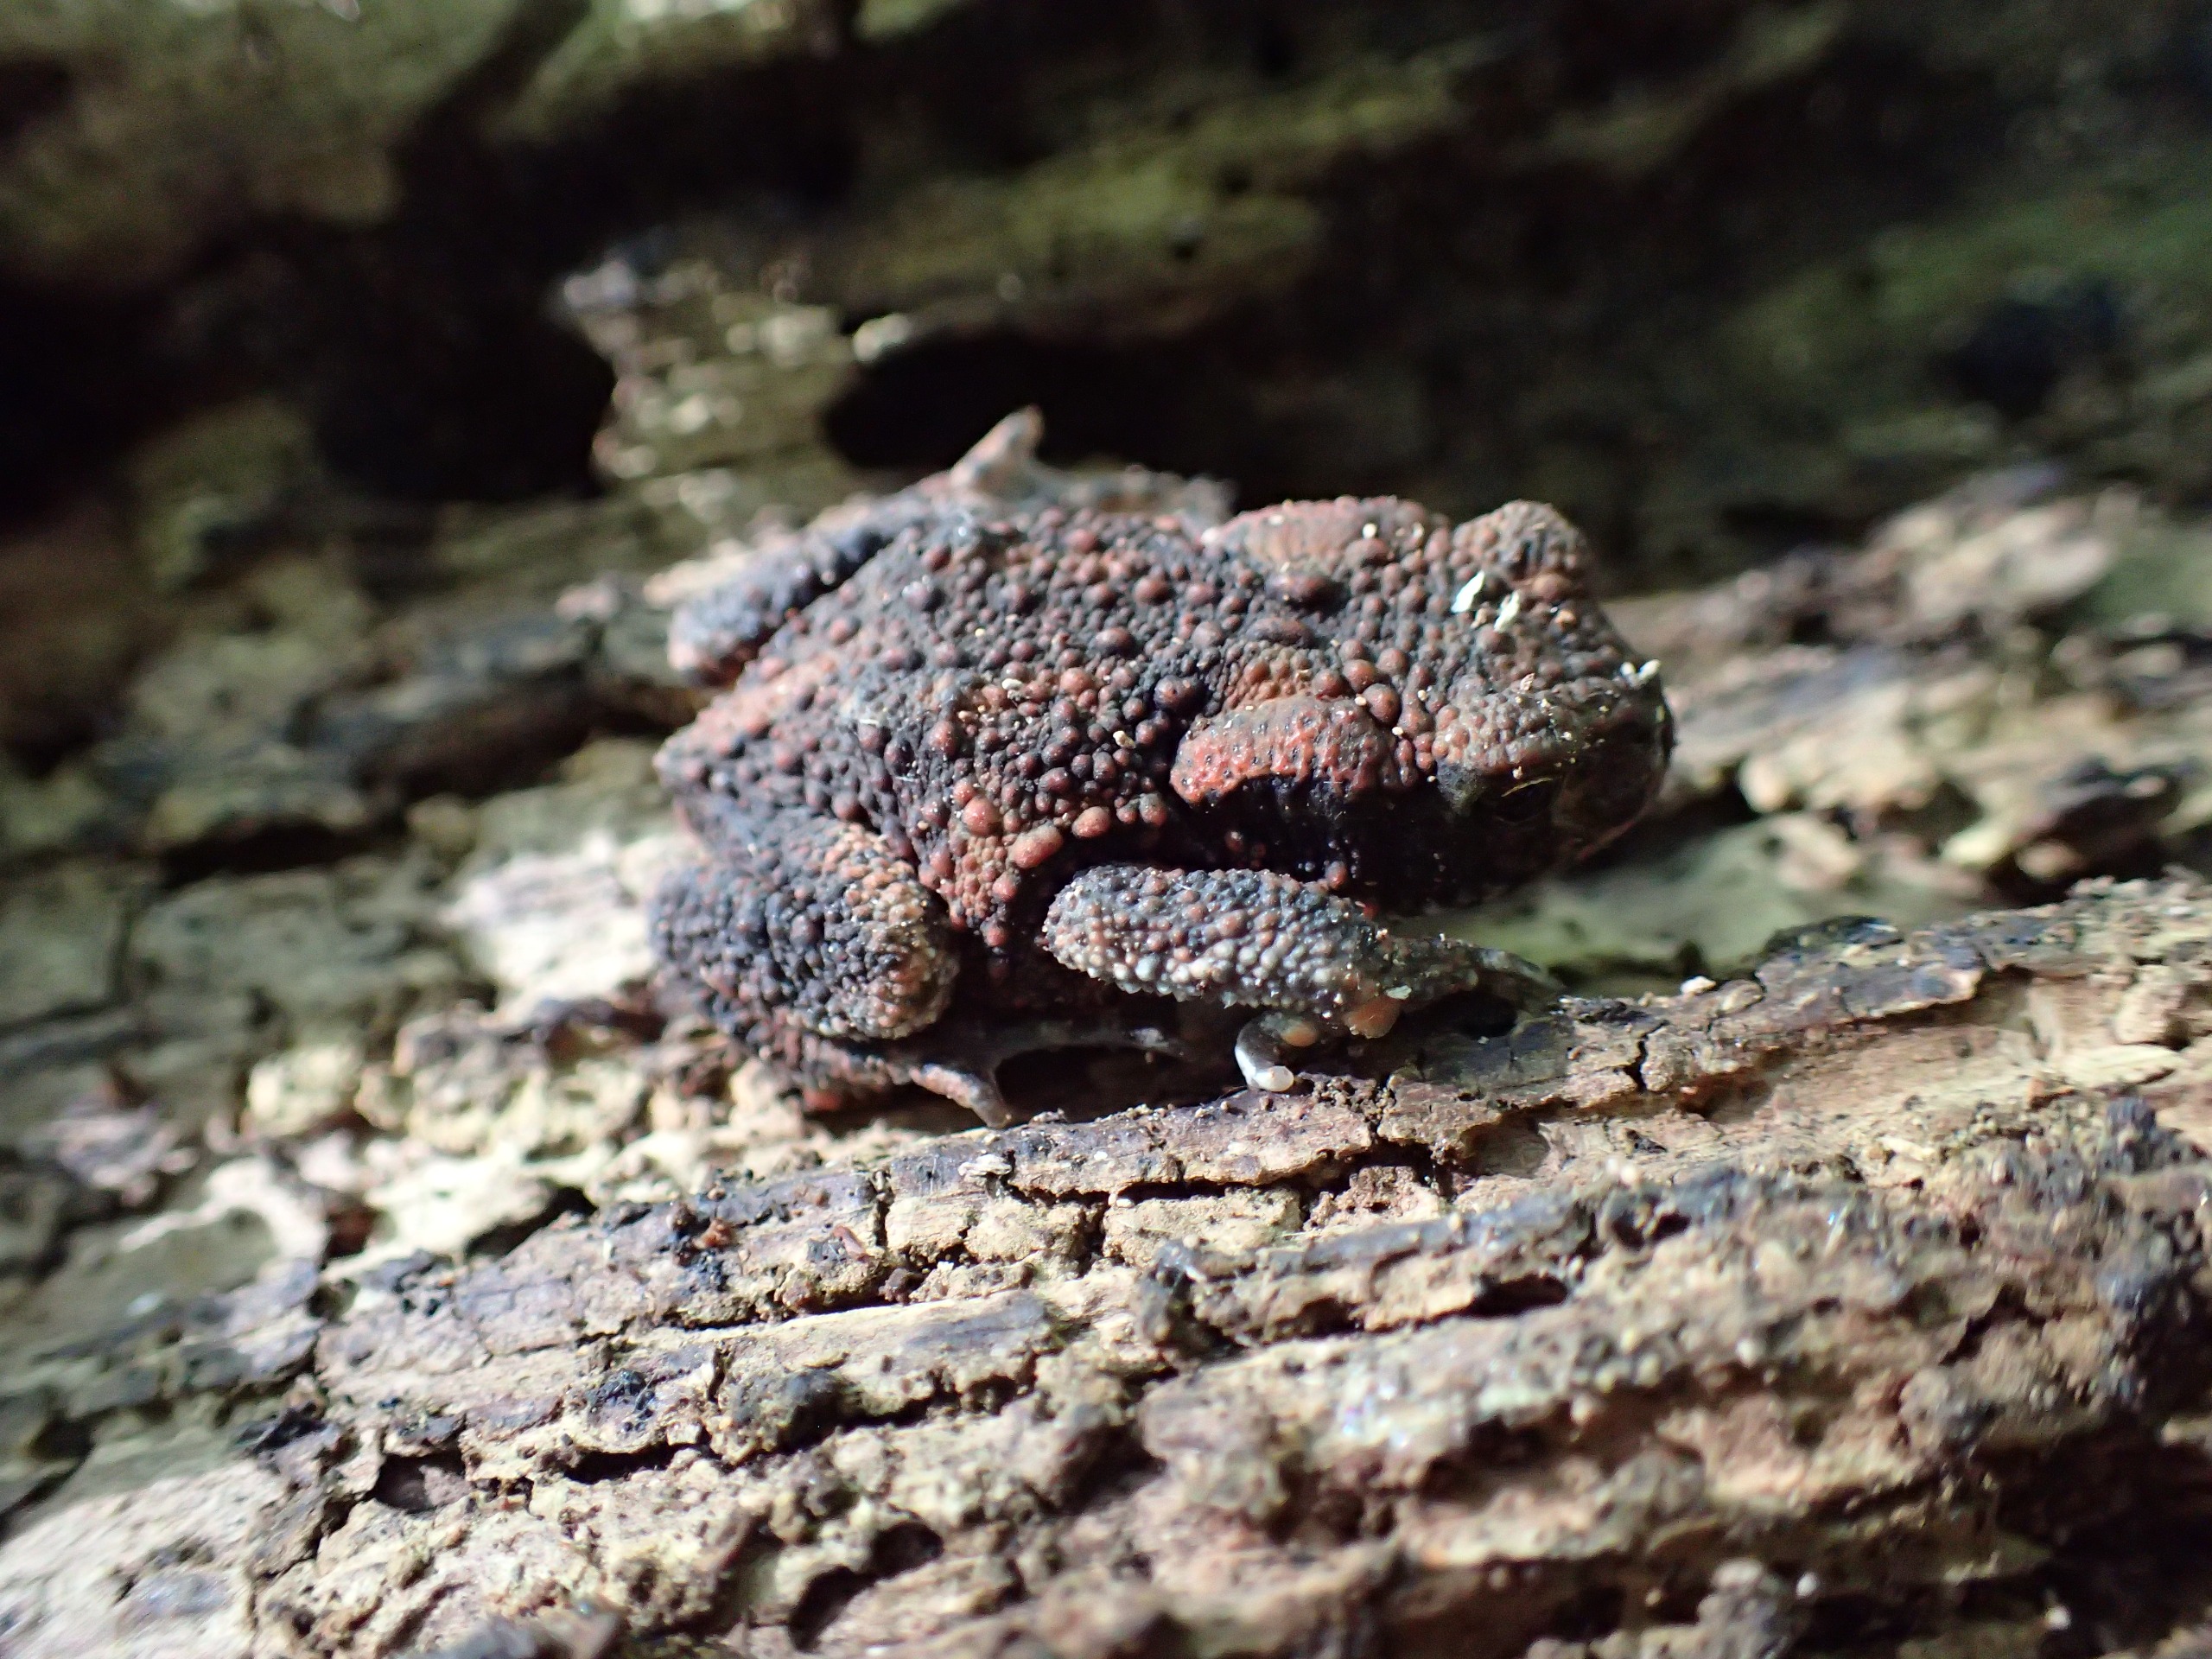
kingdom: Animalia
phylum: Chordata
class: Amphibia
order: Anura
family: Bufonidae
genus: Bufo
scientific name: Bufo bufo
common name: Skrubtudse
